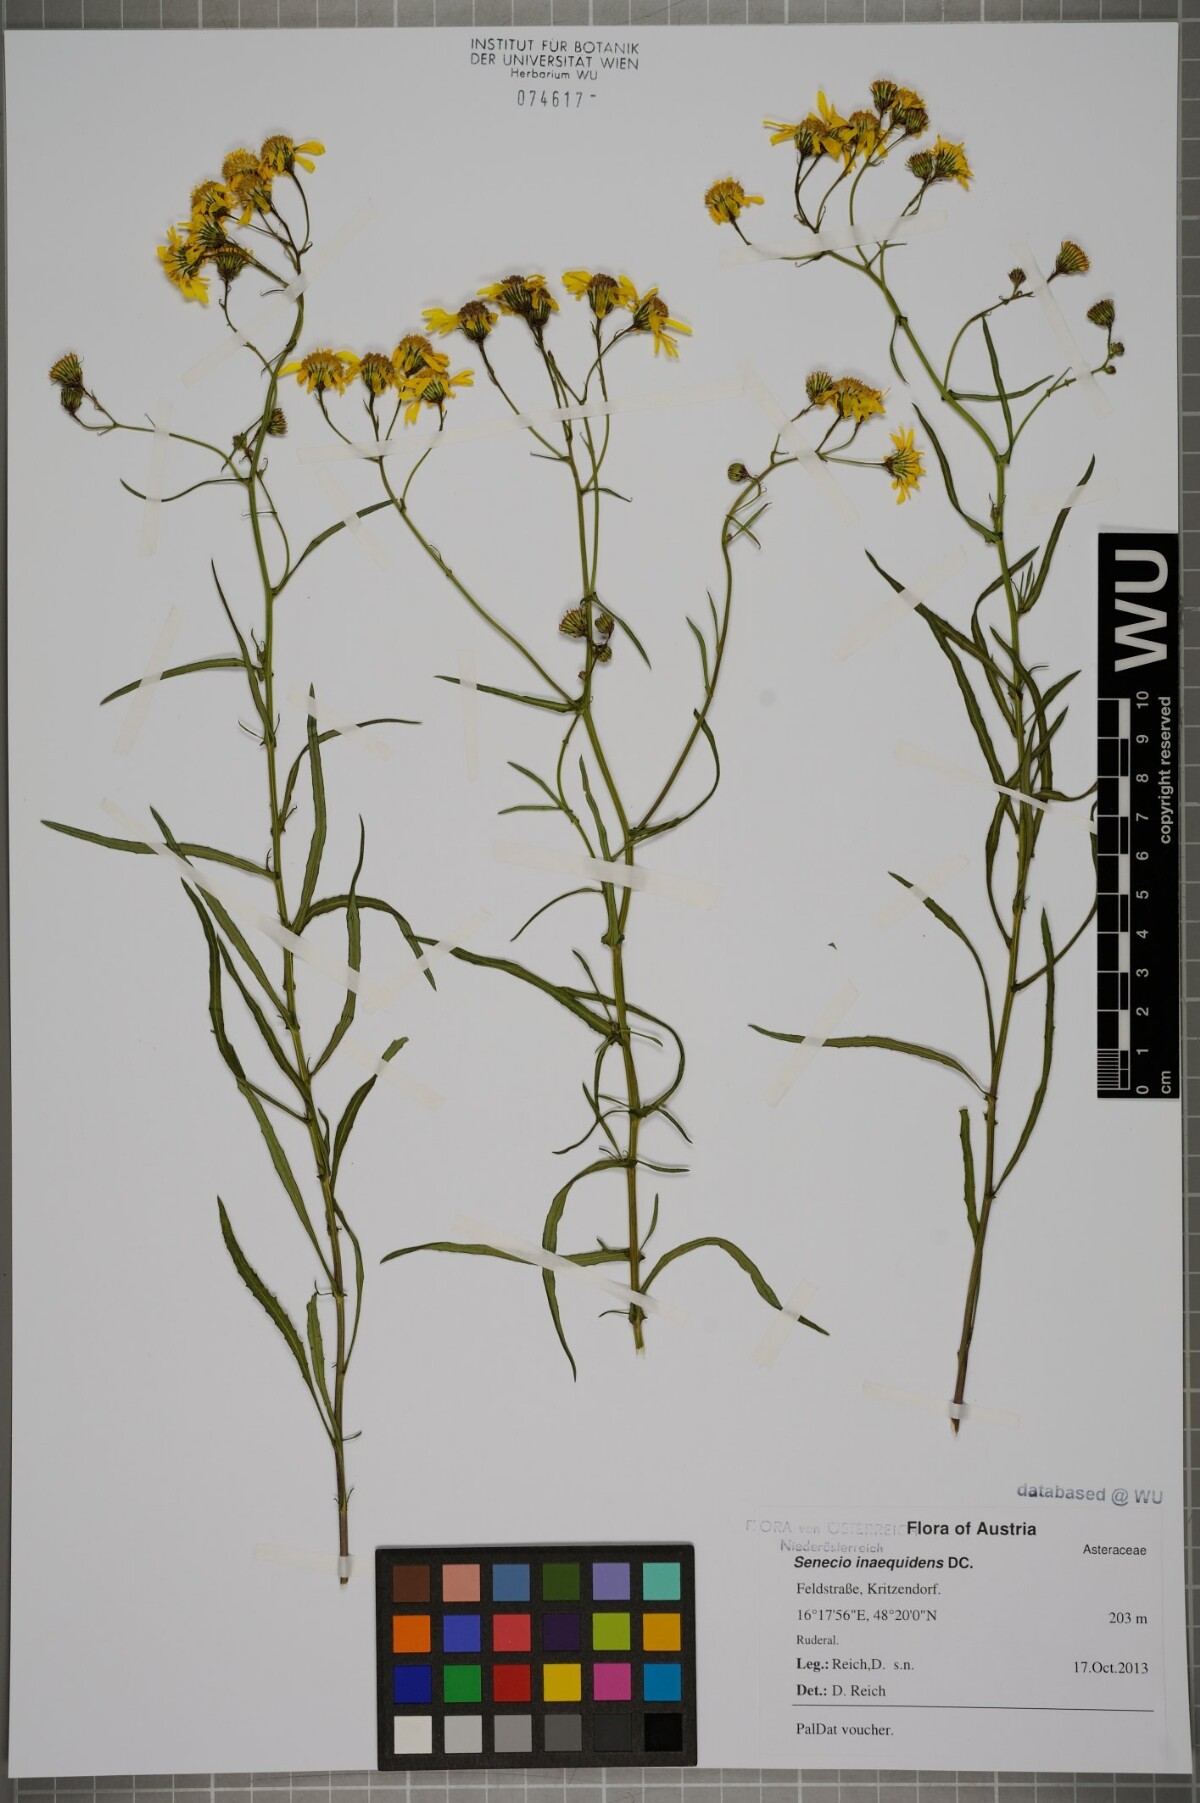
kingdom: Plantae
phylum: Tracheophyta
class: Magnoliopsida
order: Asterales
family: Asteraceae
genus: Senecio
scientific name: Senecio inaequidens
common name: Narrow-leaved ragwort
